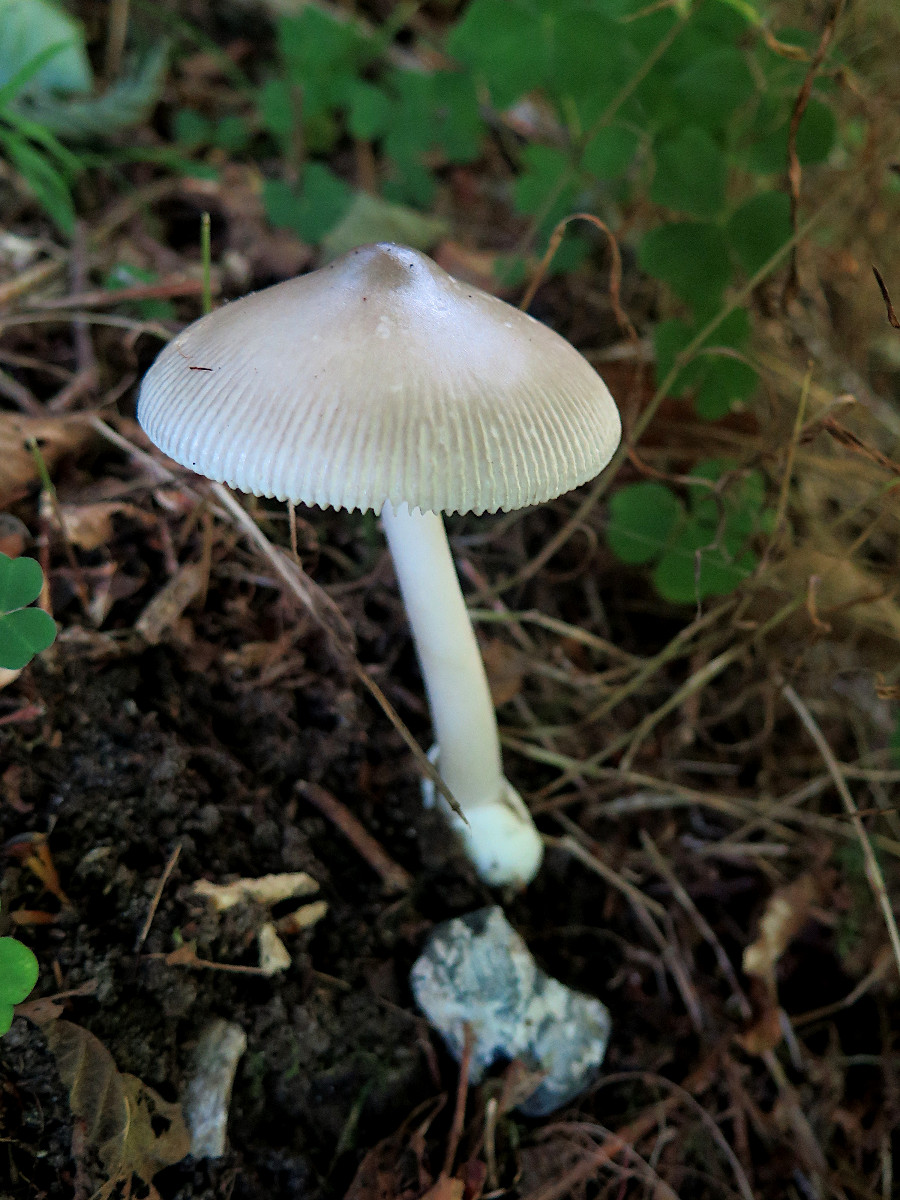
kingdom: Fungi
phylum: Basidiomycota
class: Agaricomycetes
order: Agaricales
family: Amanitaceae
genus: Amanita
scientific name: Amanita coryli
